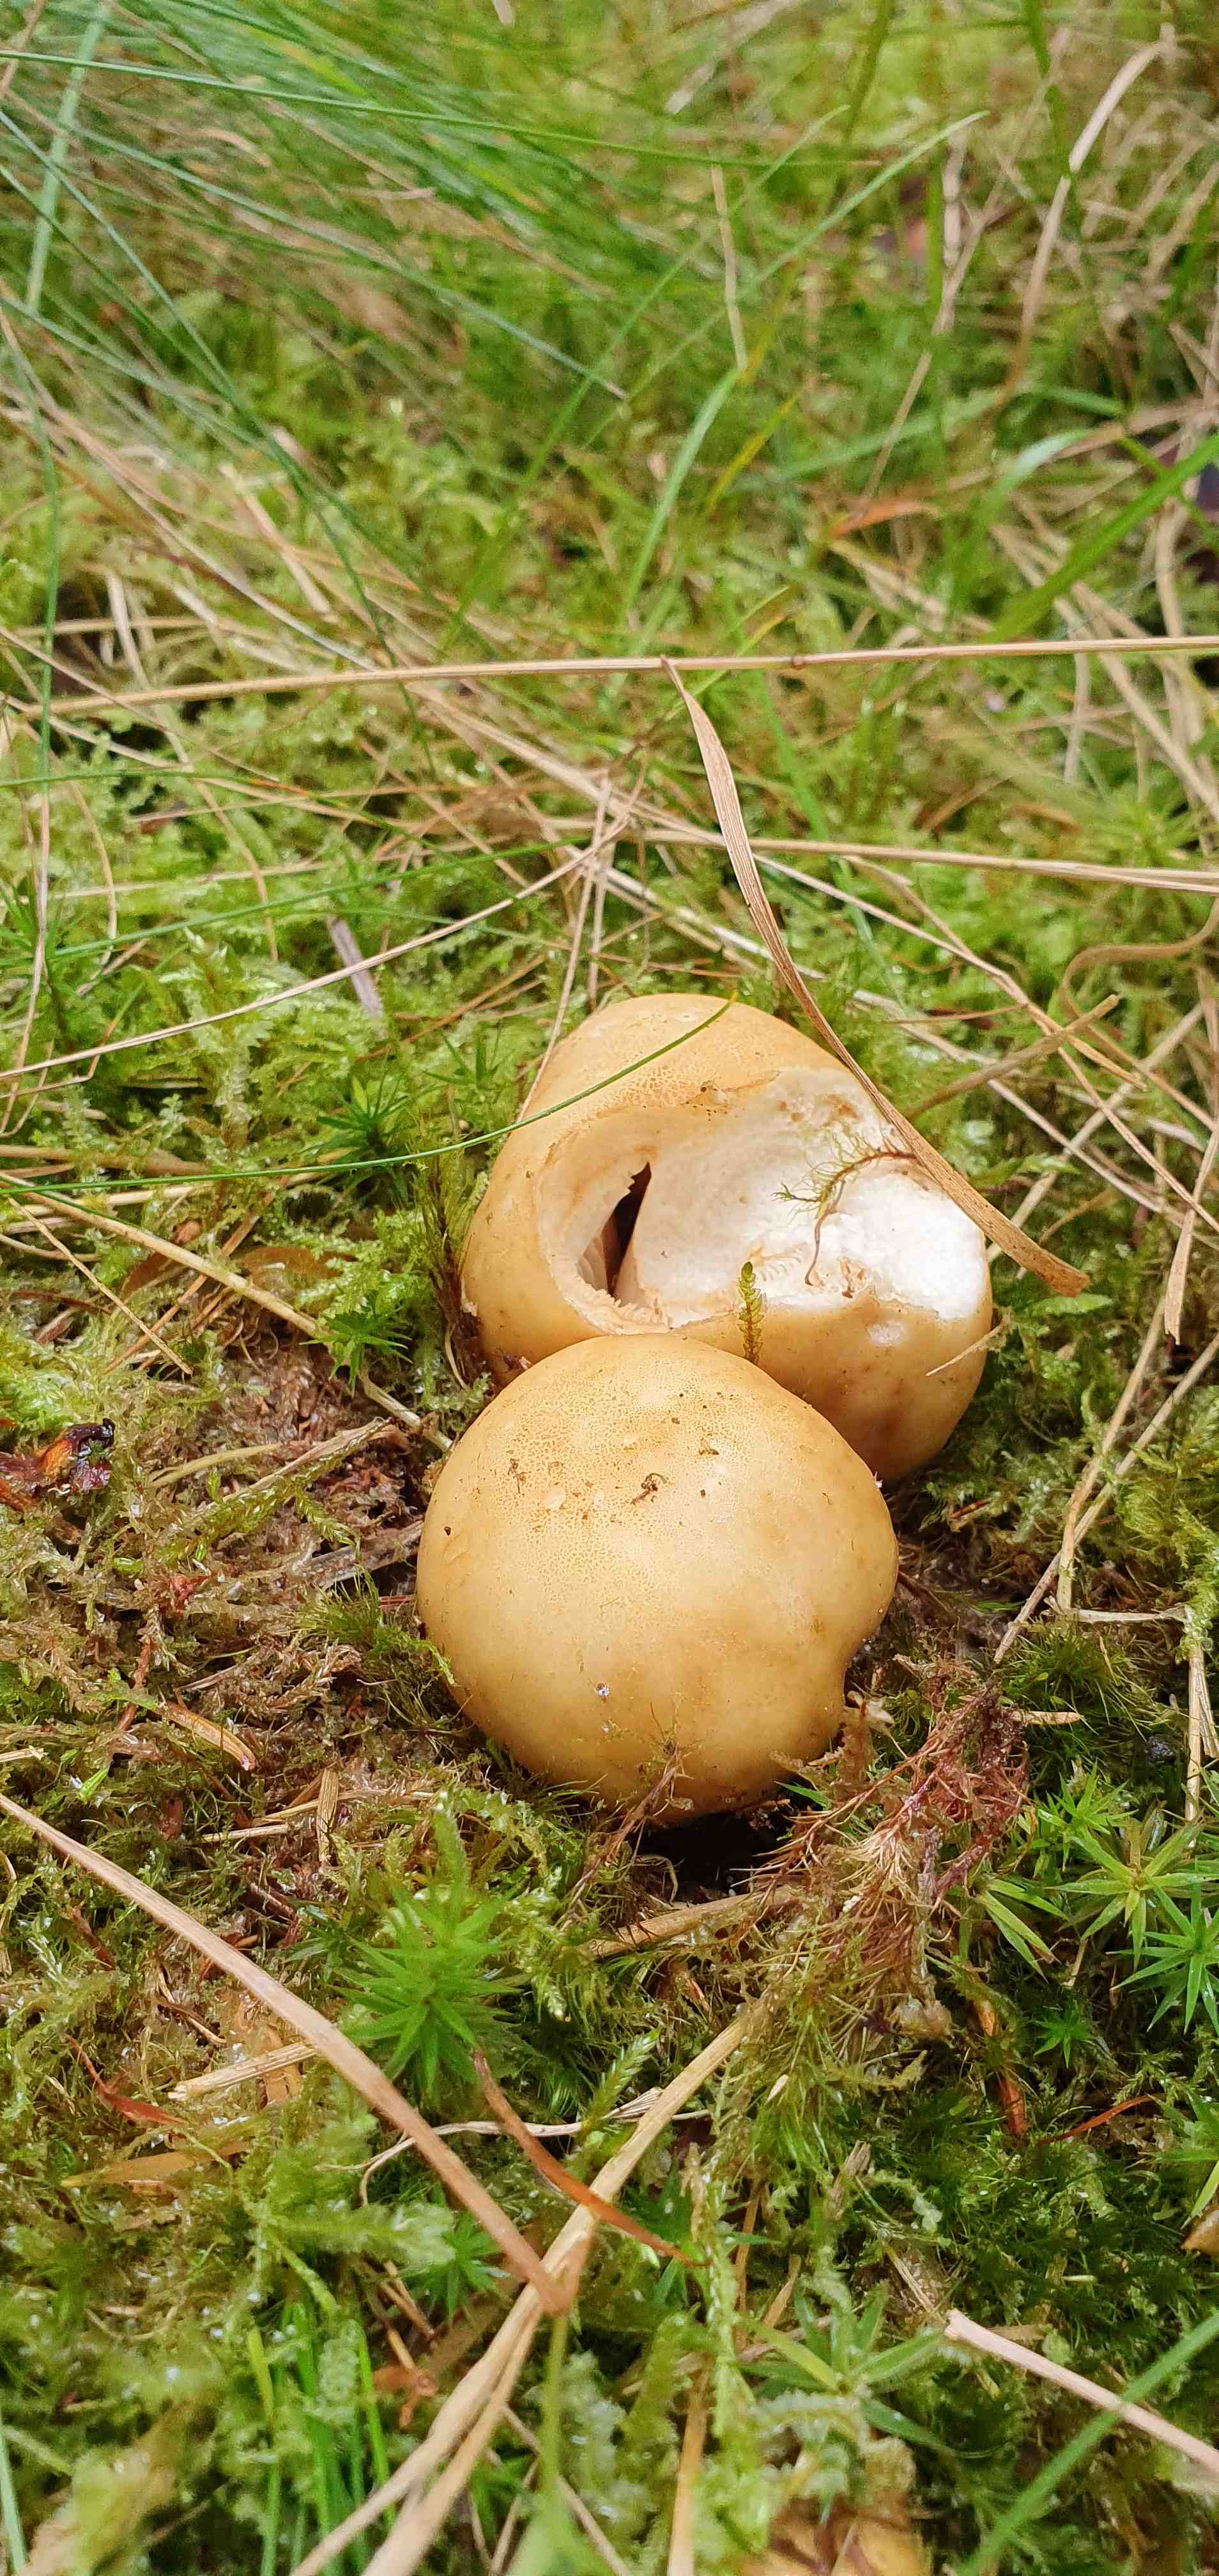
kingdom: Fungi
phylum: Basidiomycota
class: Agaricomycetes
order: Russulales
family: Russulaceae
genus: Russula
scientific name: Russula ochroleuca
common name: okkergul skørhat
